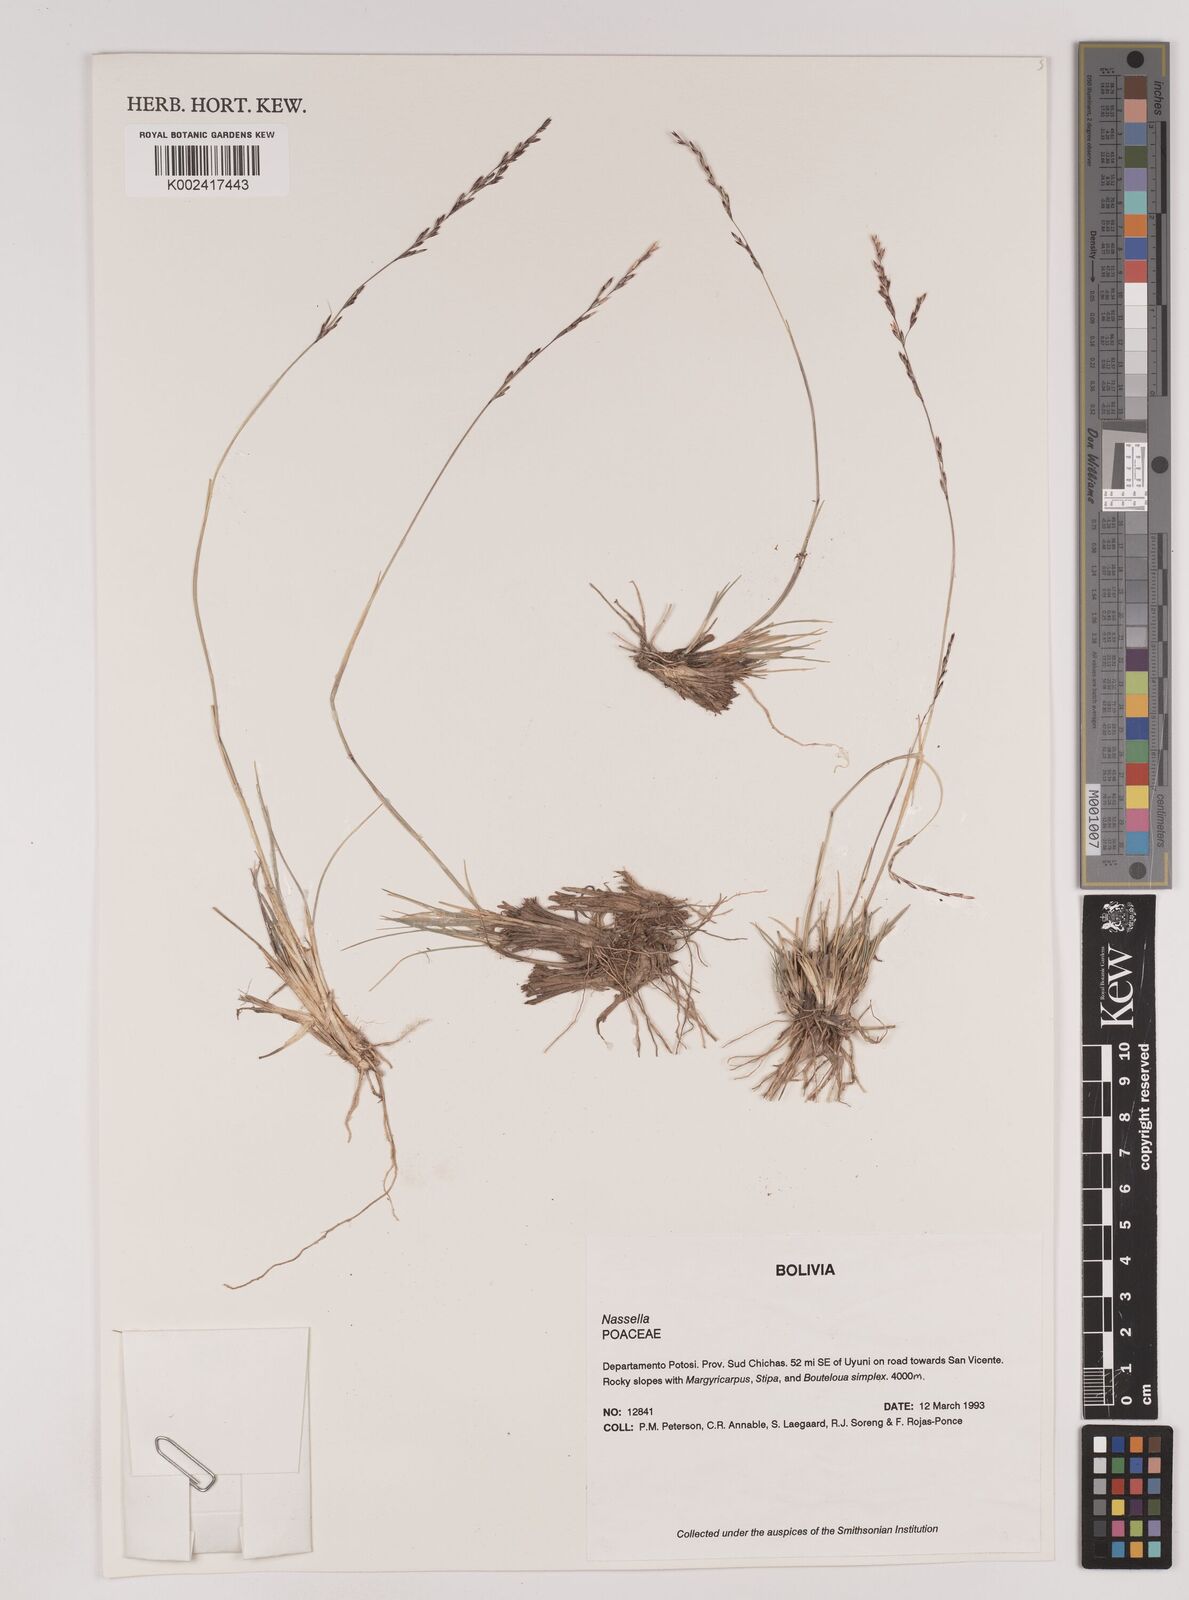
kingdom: Plantae
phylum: Tracheophyta
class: Liliopsida
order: Poales
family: Poaceae
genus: Nassella
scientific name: Nassella asplundii
